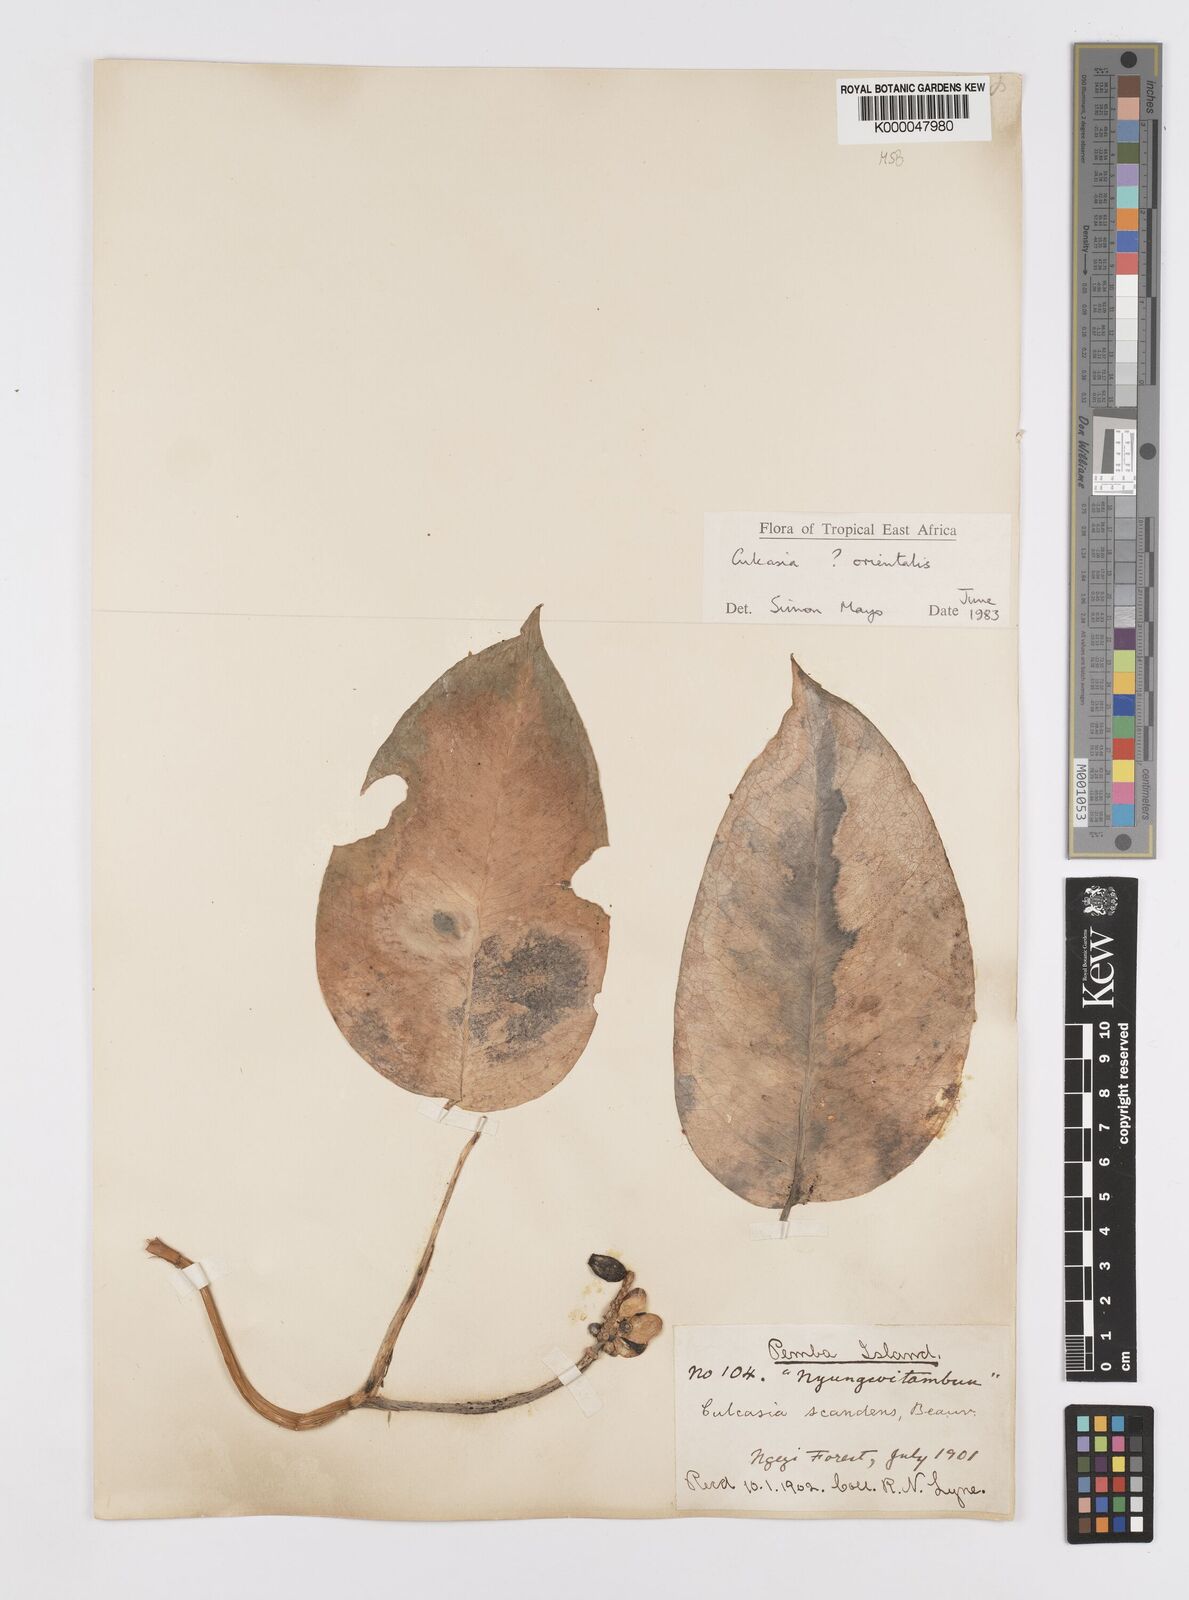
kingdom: Plantae
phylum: Tracheophyta
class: Liliopsida
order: Alismatales
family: Araceae
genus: Culcasia
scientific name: Culcasia orientalis
